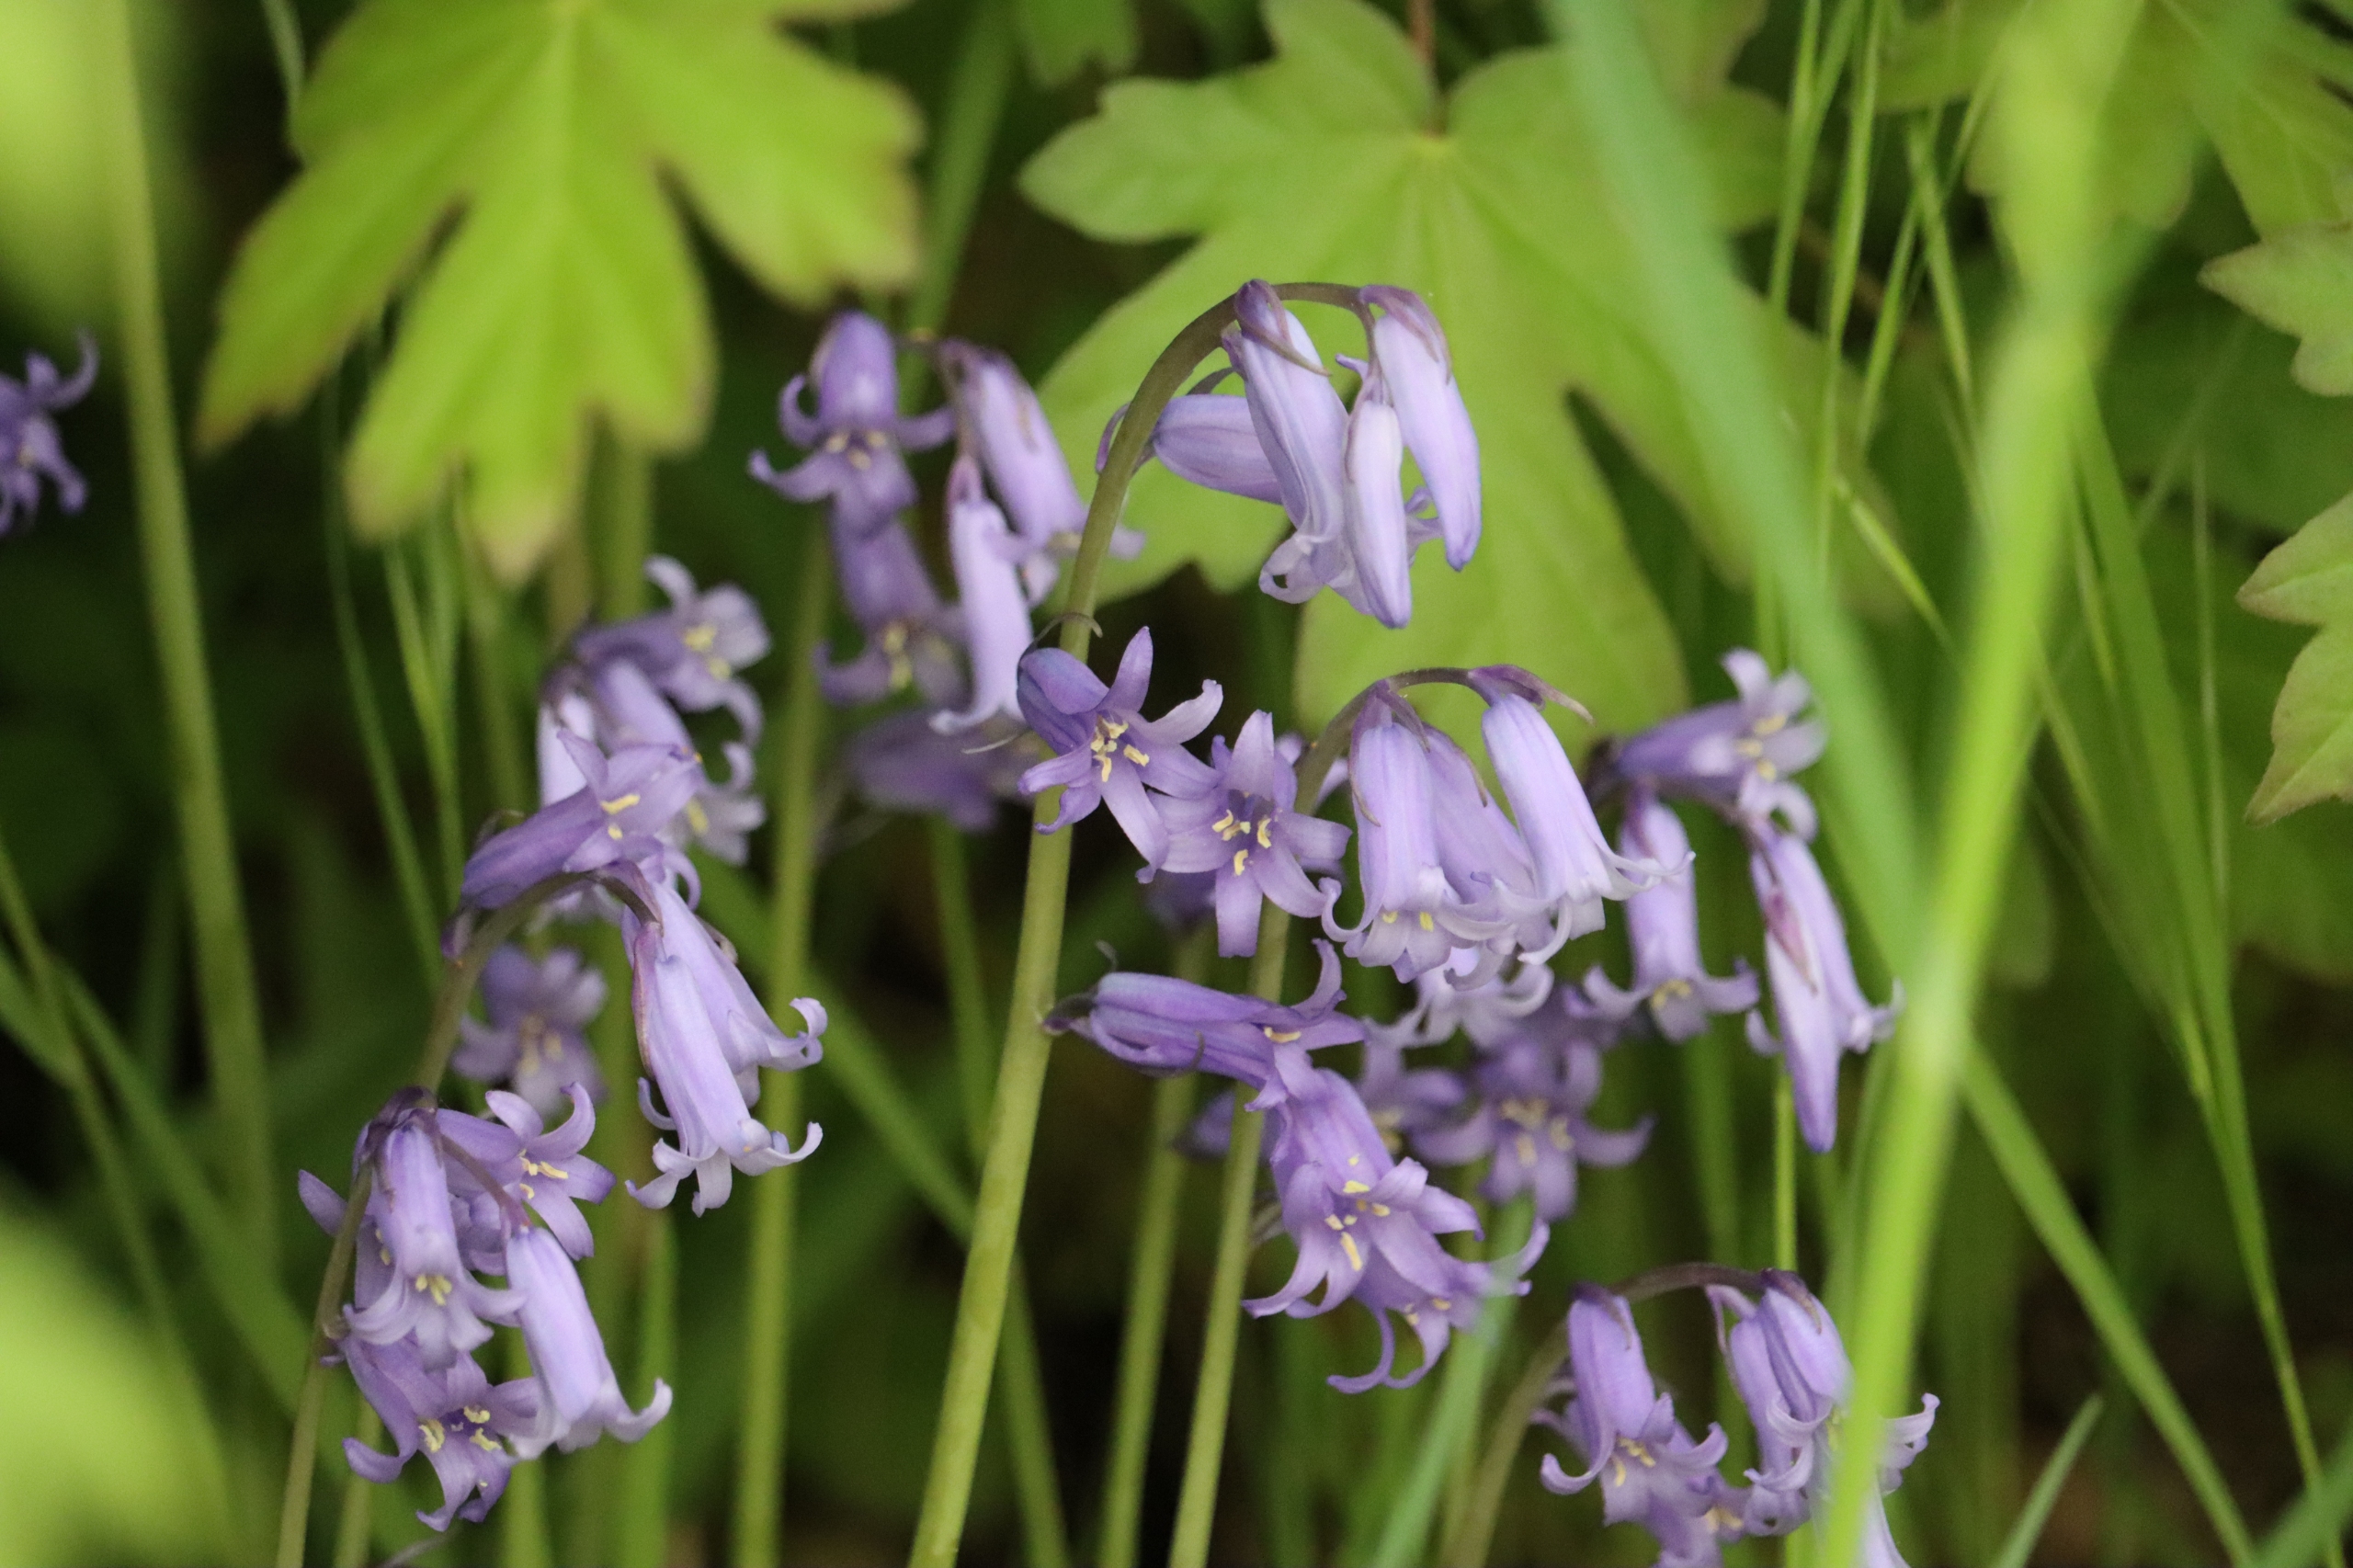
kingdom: Plantae
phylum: Tracheophyta
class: Liliopsida
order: Asparagales
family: Asparagaceae
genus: Hyacinthoides
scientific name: Hyacinthoides non-scripta
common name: Klokke-skilla
